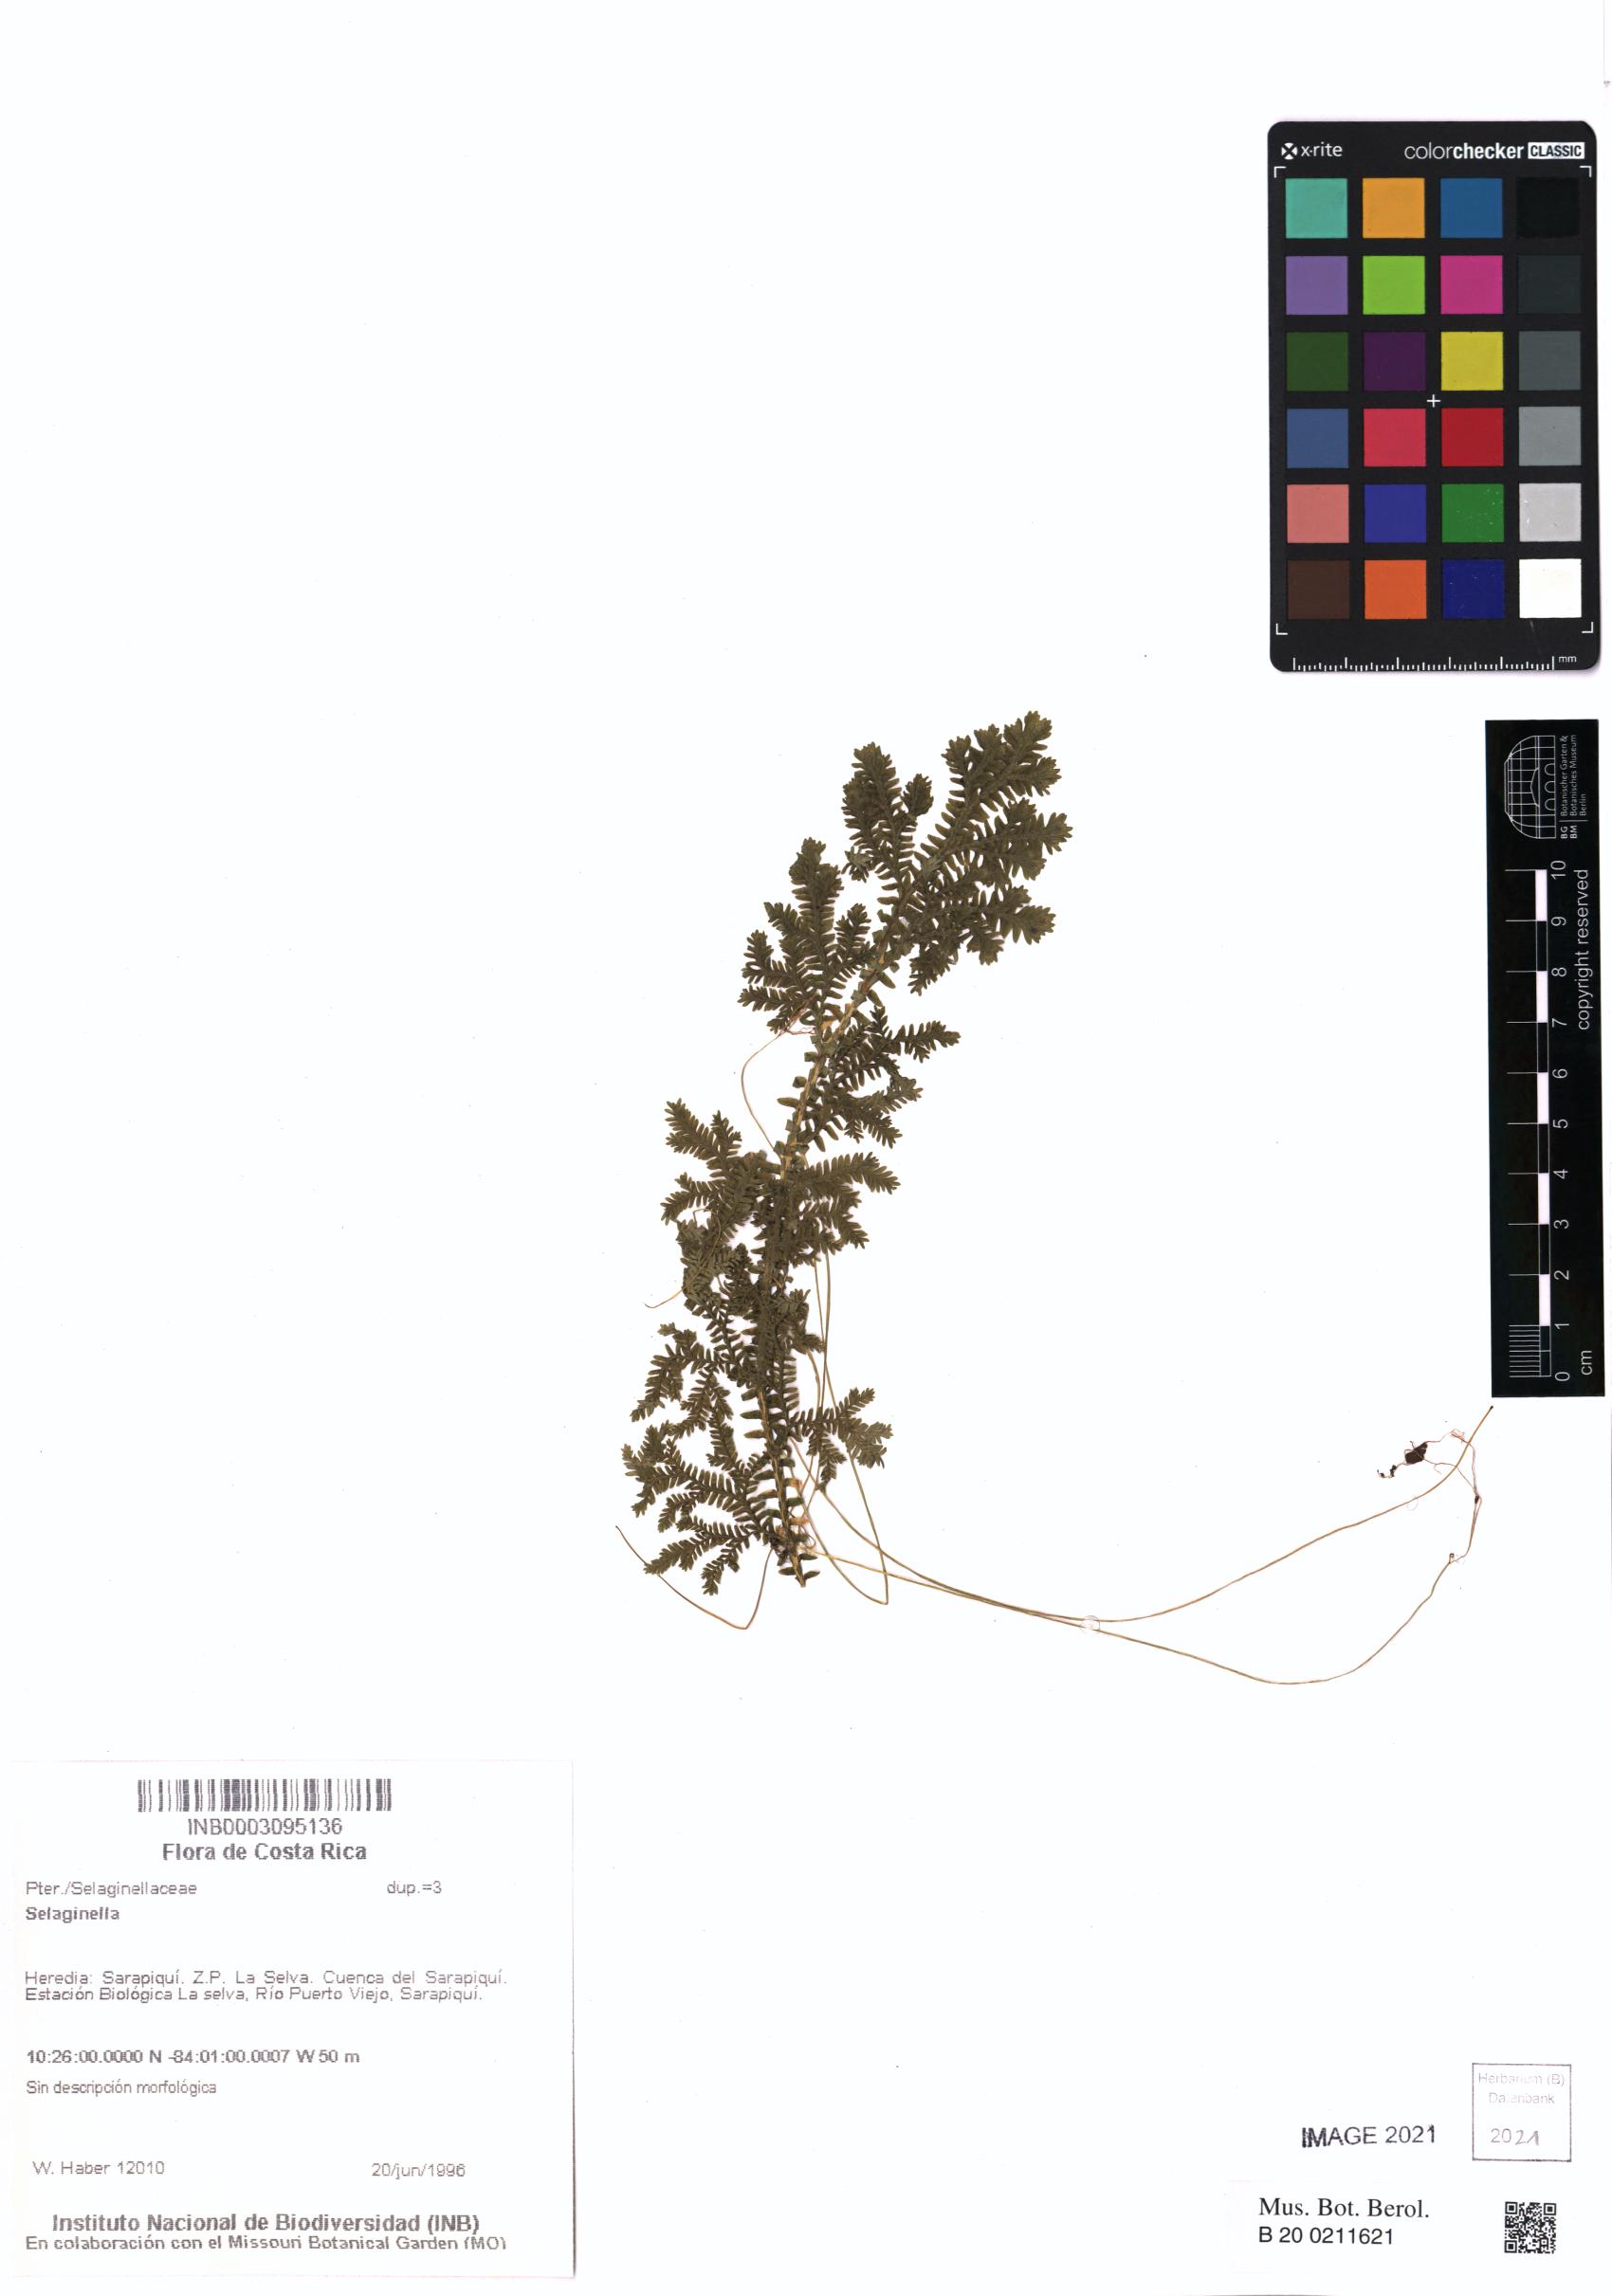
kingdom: Plantae
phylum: Tracheophyta
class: Lycopodiopsida
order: Selaginellales
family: Selaginellaceae
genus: Selaginella
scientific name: Selaginella
